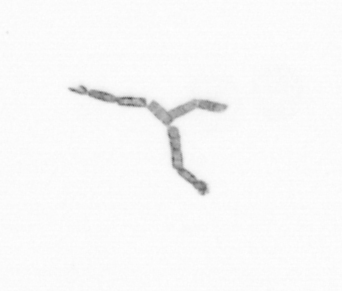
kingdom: Chromista
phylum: Ochrophyta
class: Bacillariophyceae
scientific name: Bacillariophyceae
